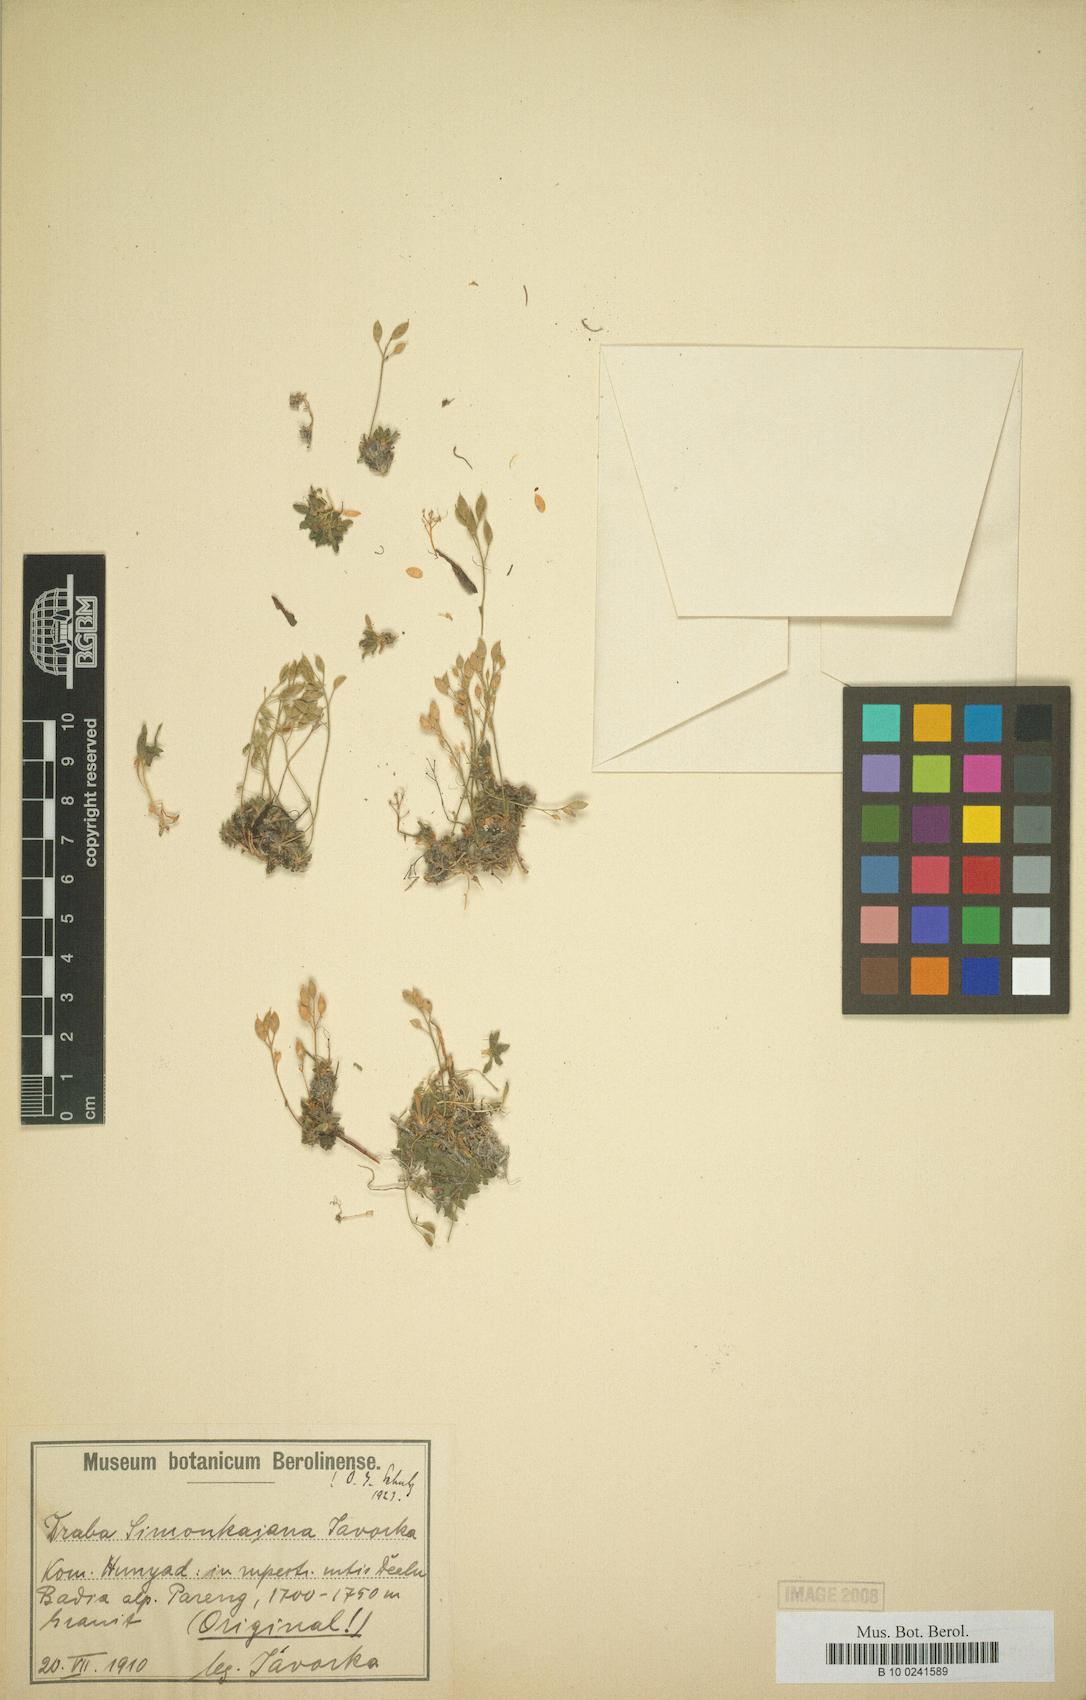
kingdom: Plantae
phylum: Tracheophyta
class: Magnoliopsida
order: Brassicales
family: Brassicaceae
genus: Draba
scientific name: Draba simonkaiana
